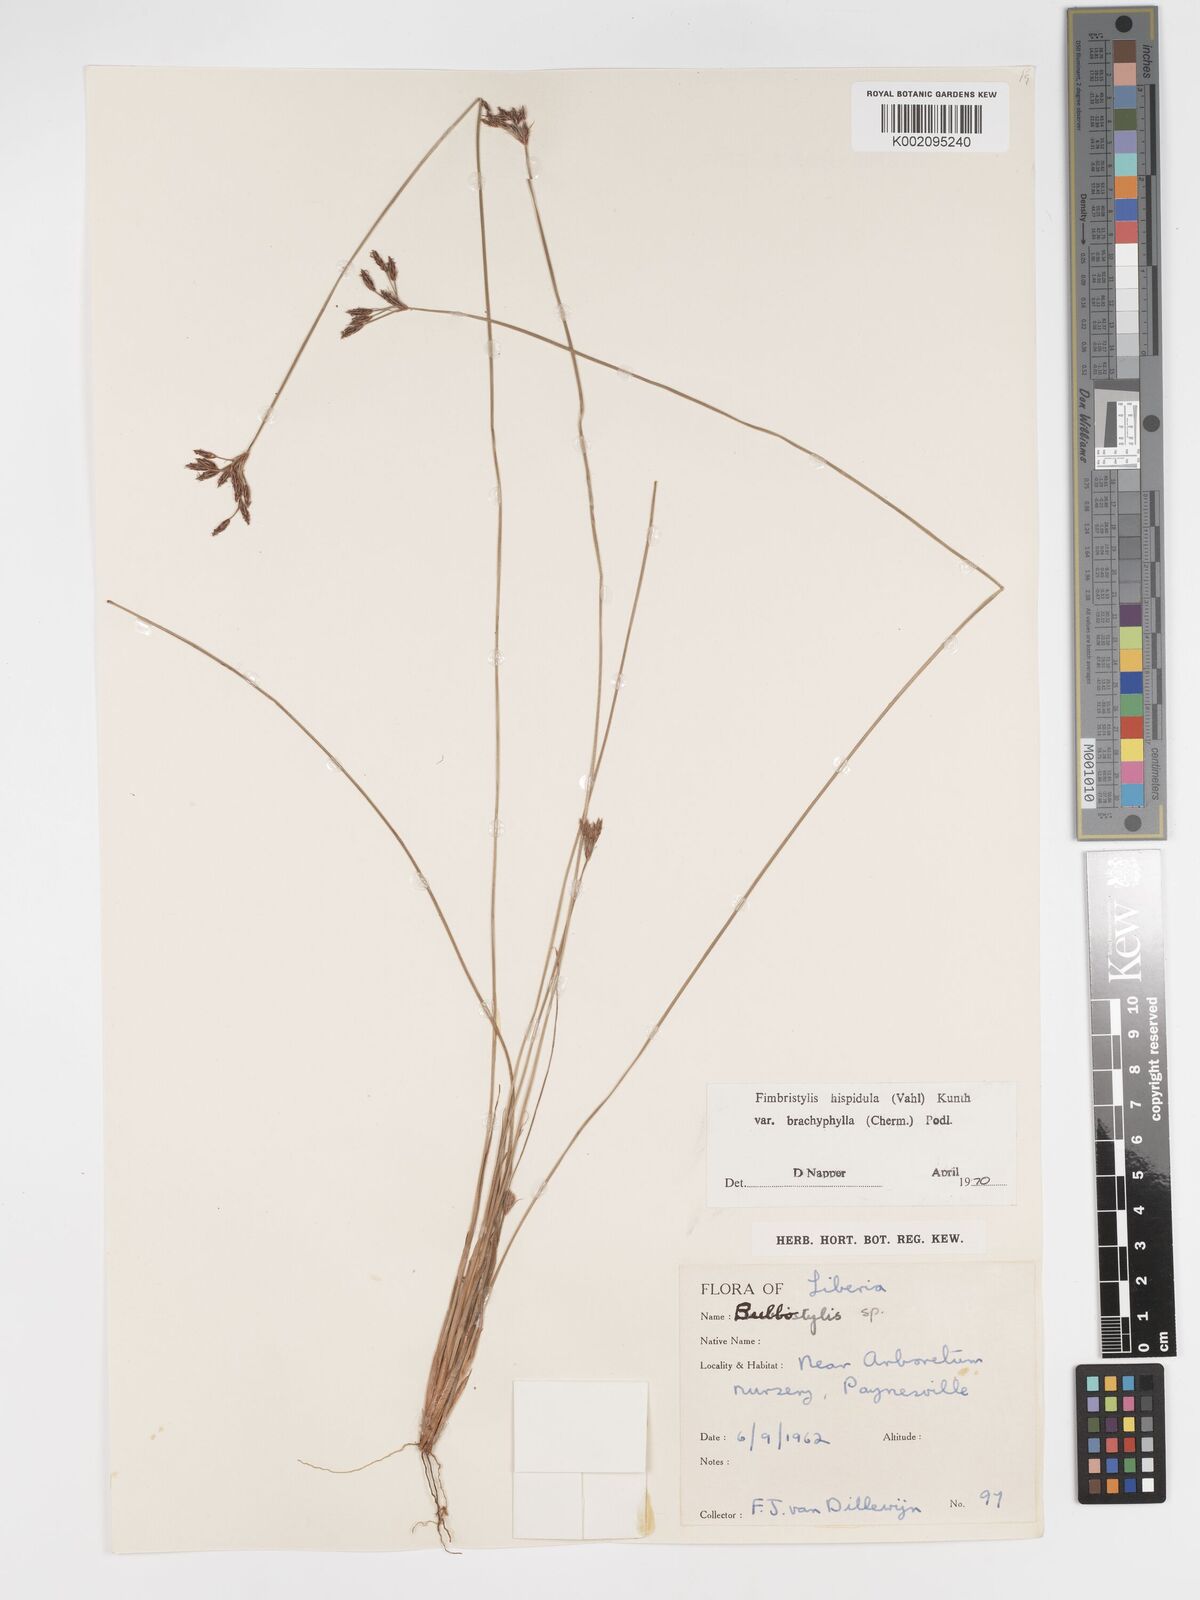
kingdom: Plantae
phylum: Tracheophyta
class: Liliopsida
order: Poales
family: Cyperaceae
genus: Bulbostylis
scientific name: Bulbostylis hispidula
